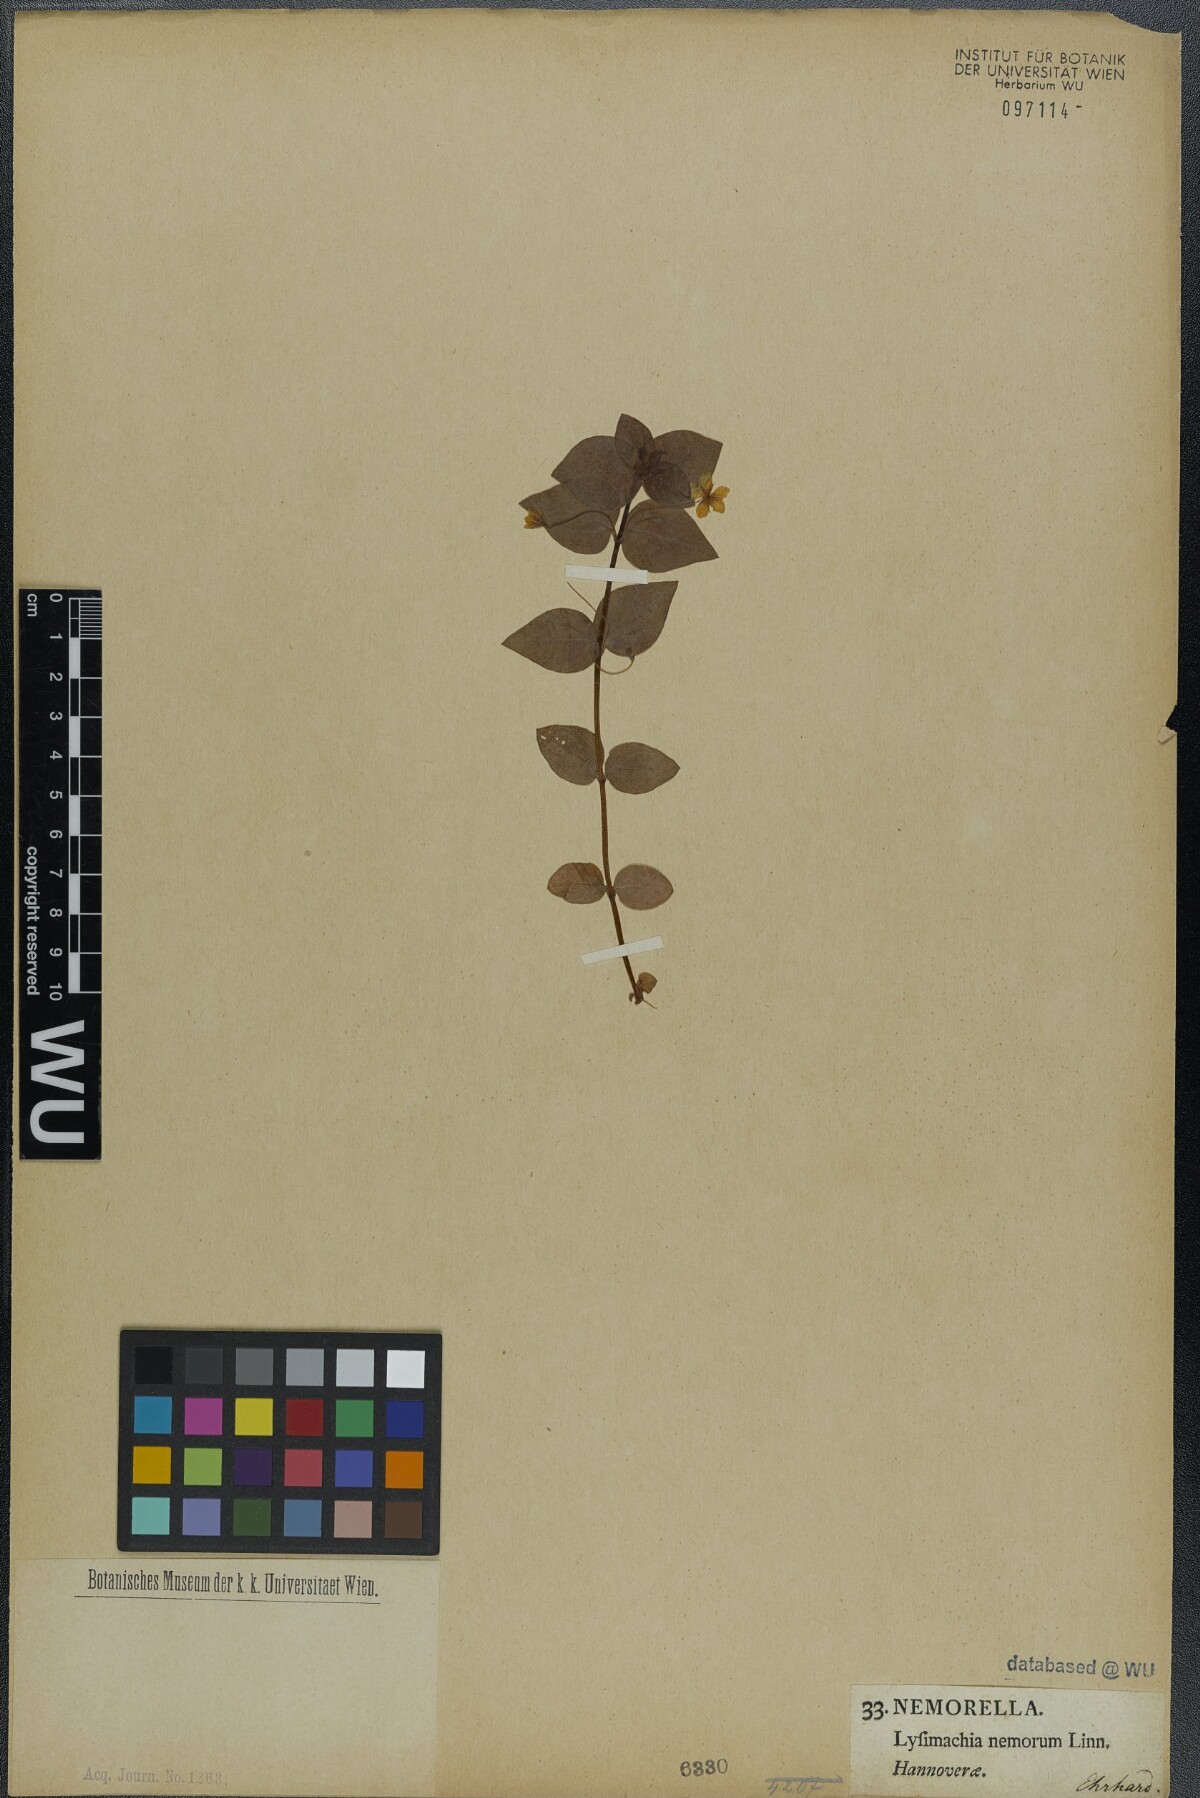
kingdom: Plantae
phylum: Tracheophyta
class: Magnoliopsida
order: Ericales
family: Primulaceae
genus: Lysimachia
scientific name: Lysimachia nemorum
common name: Yellow pimpernel
